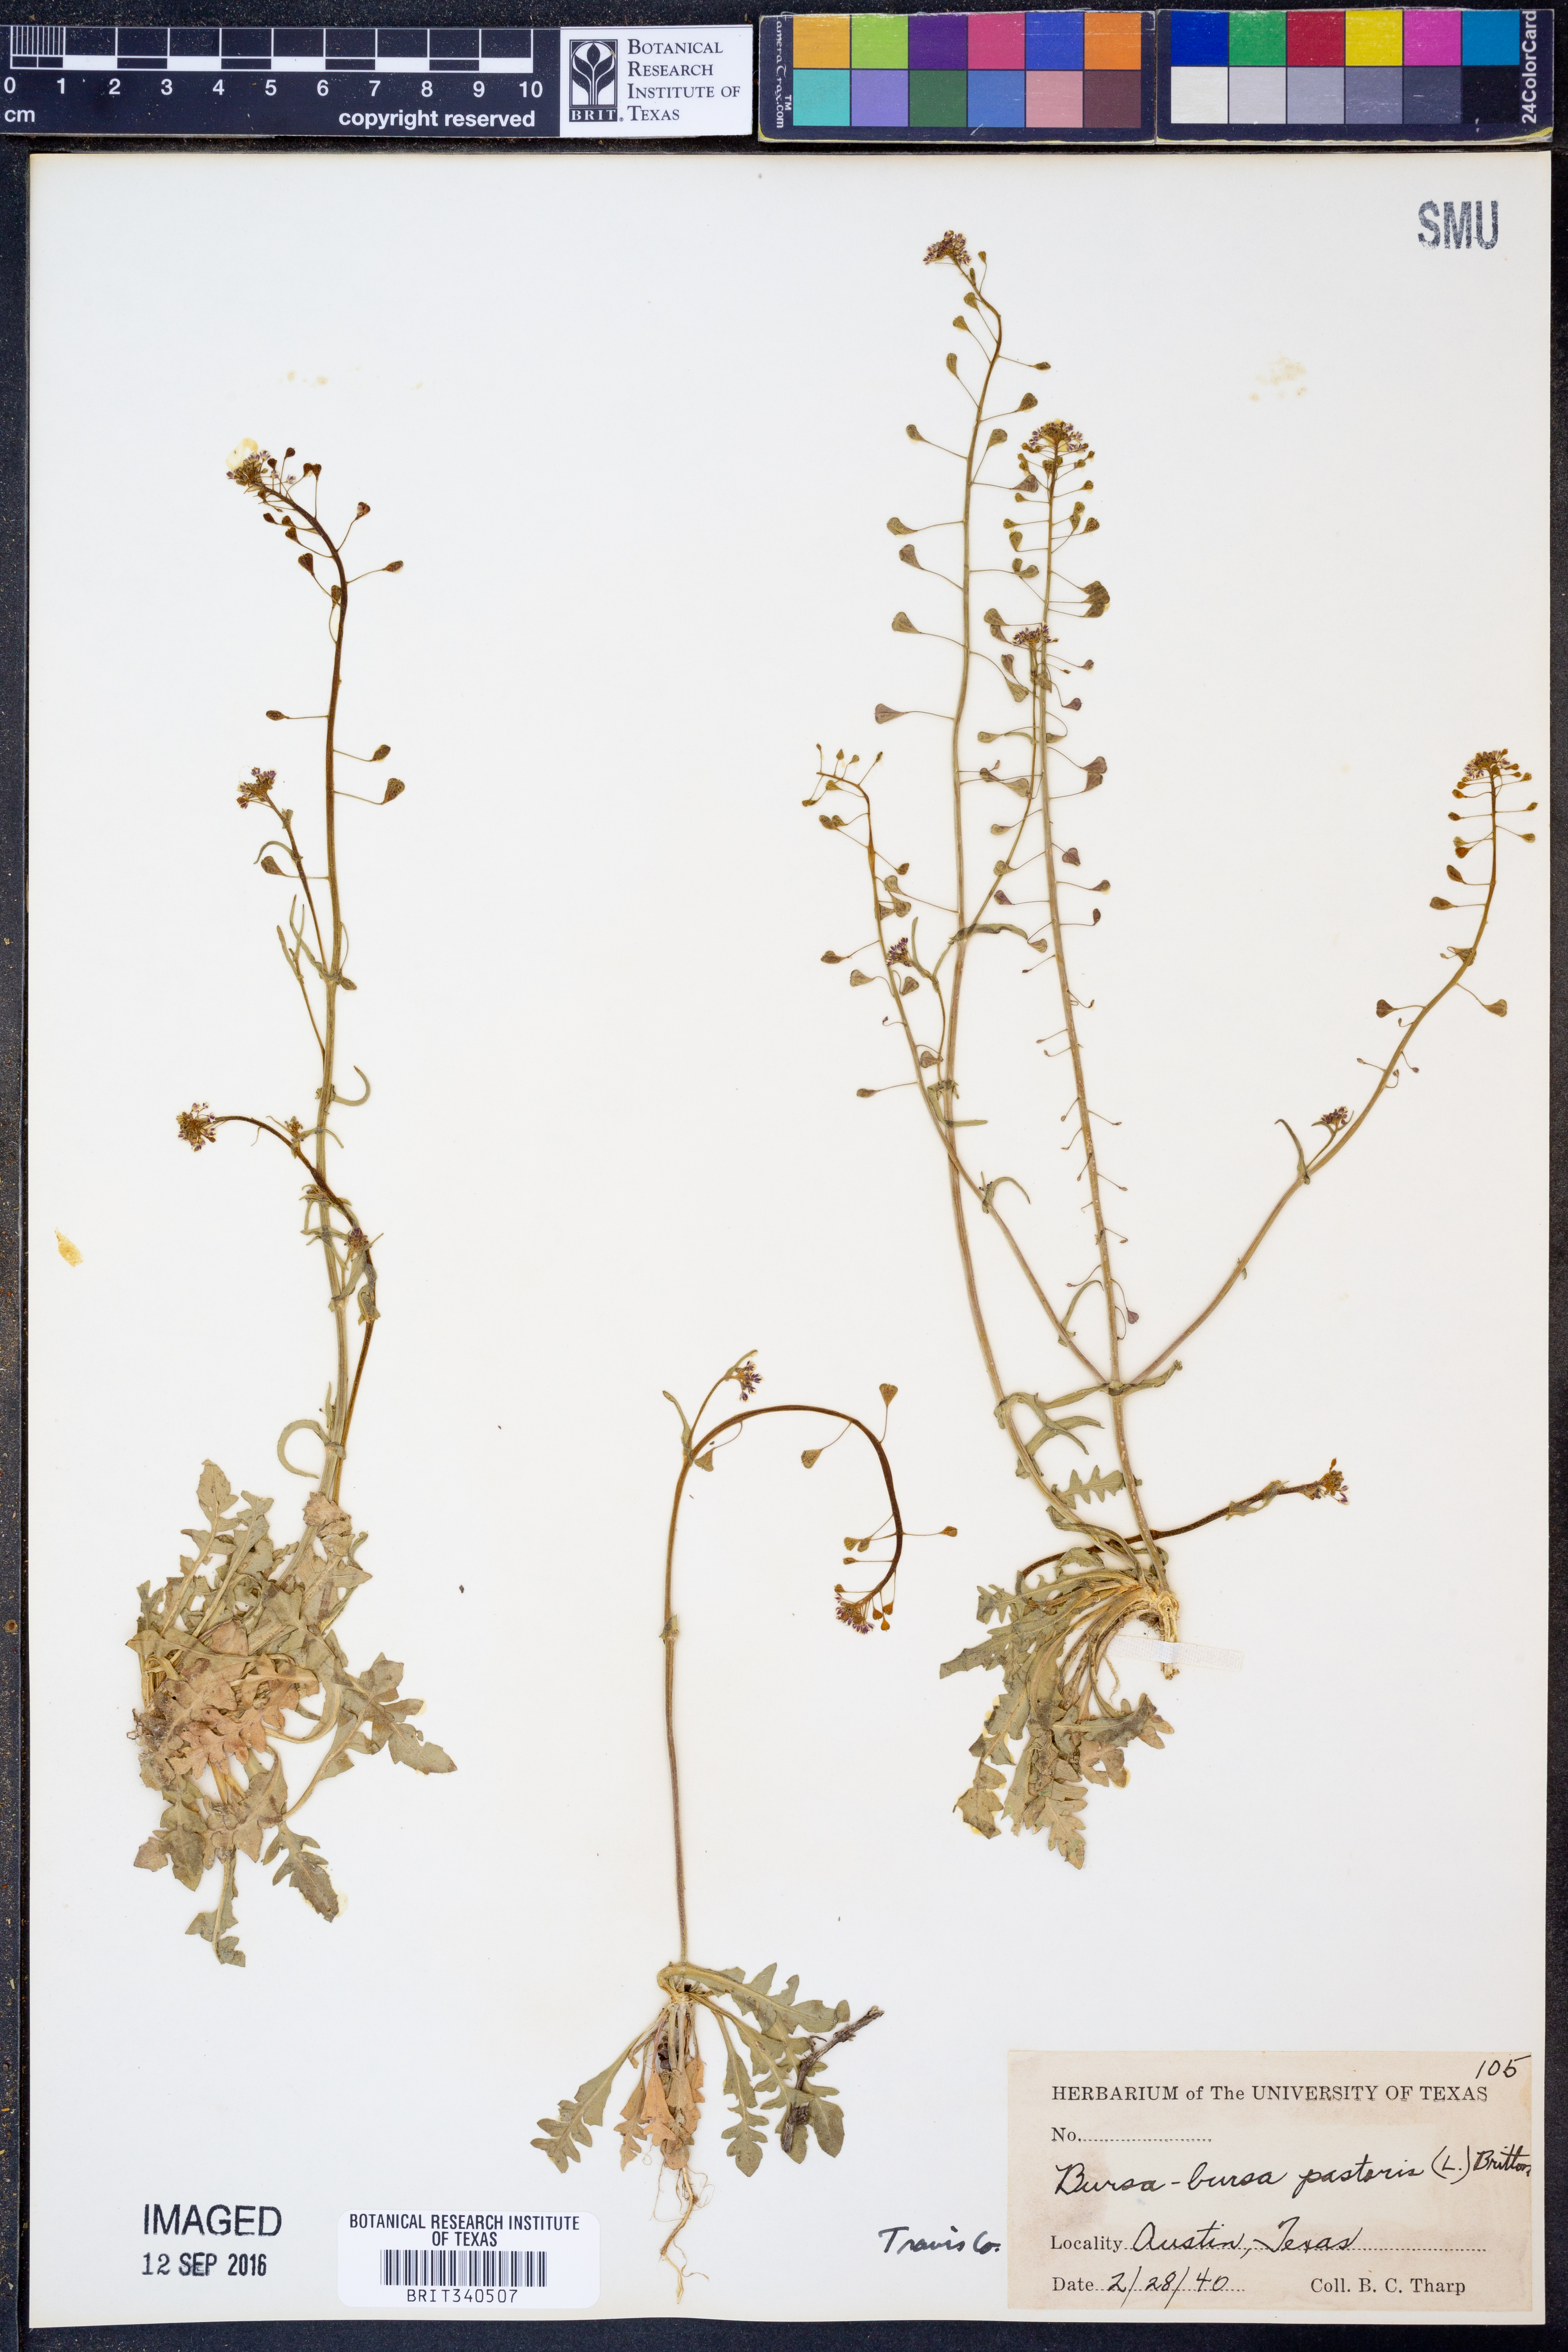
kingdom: Plantae
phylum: Tracheophyta
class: Magnoliopsida
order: Brassicales
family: Brassicaceae
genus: Capsella
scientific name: Capsella bursa-pastoris
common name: Shepherd's purse
